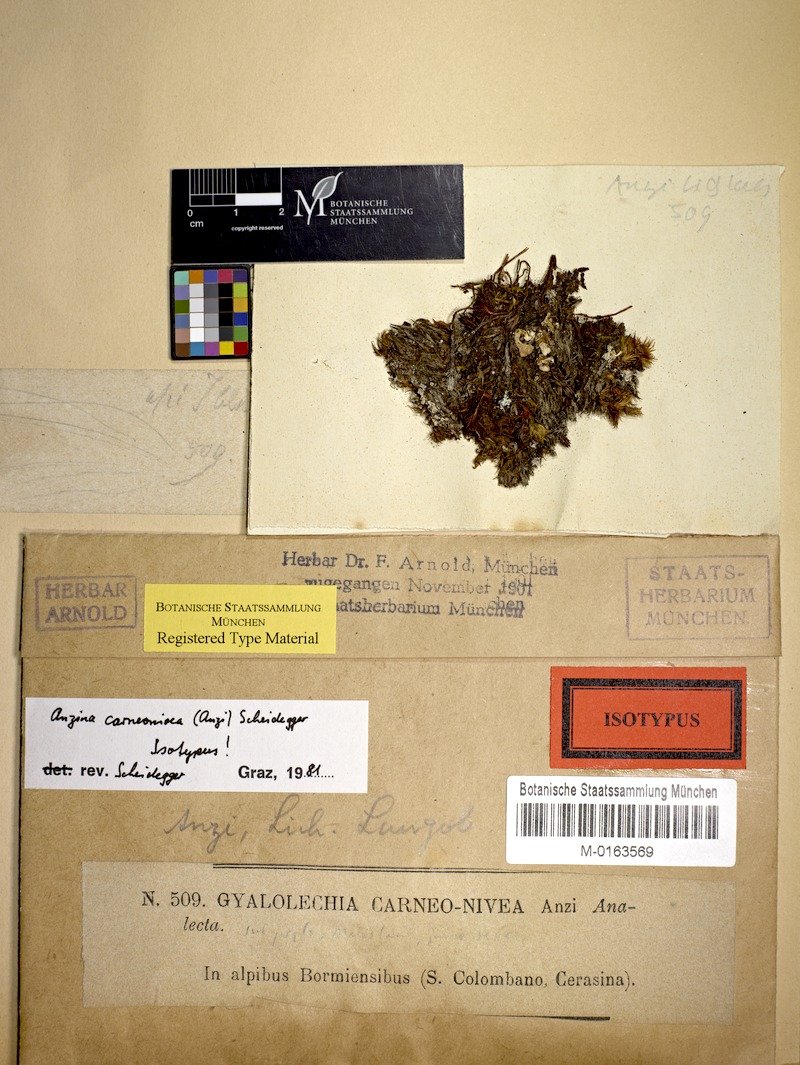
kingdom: Fungi
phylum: Ascomycota
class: Lecanoromycetes
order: Ostropales
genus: Anzina
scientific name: Anzina carneonivea
